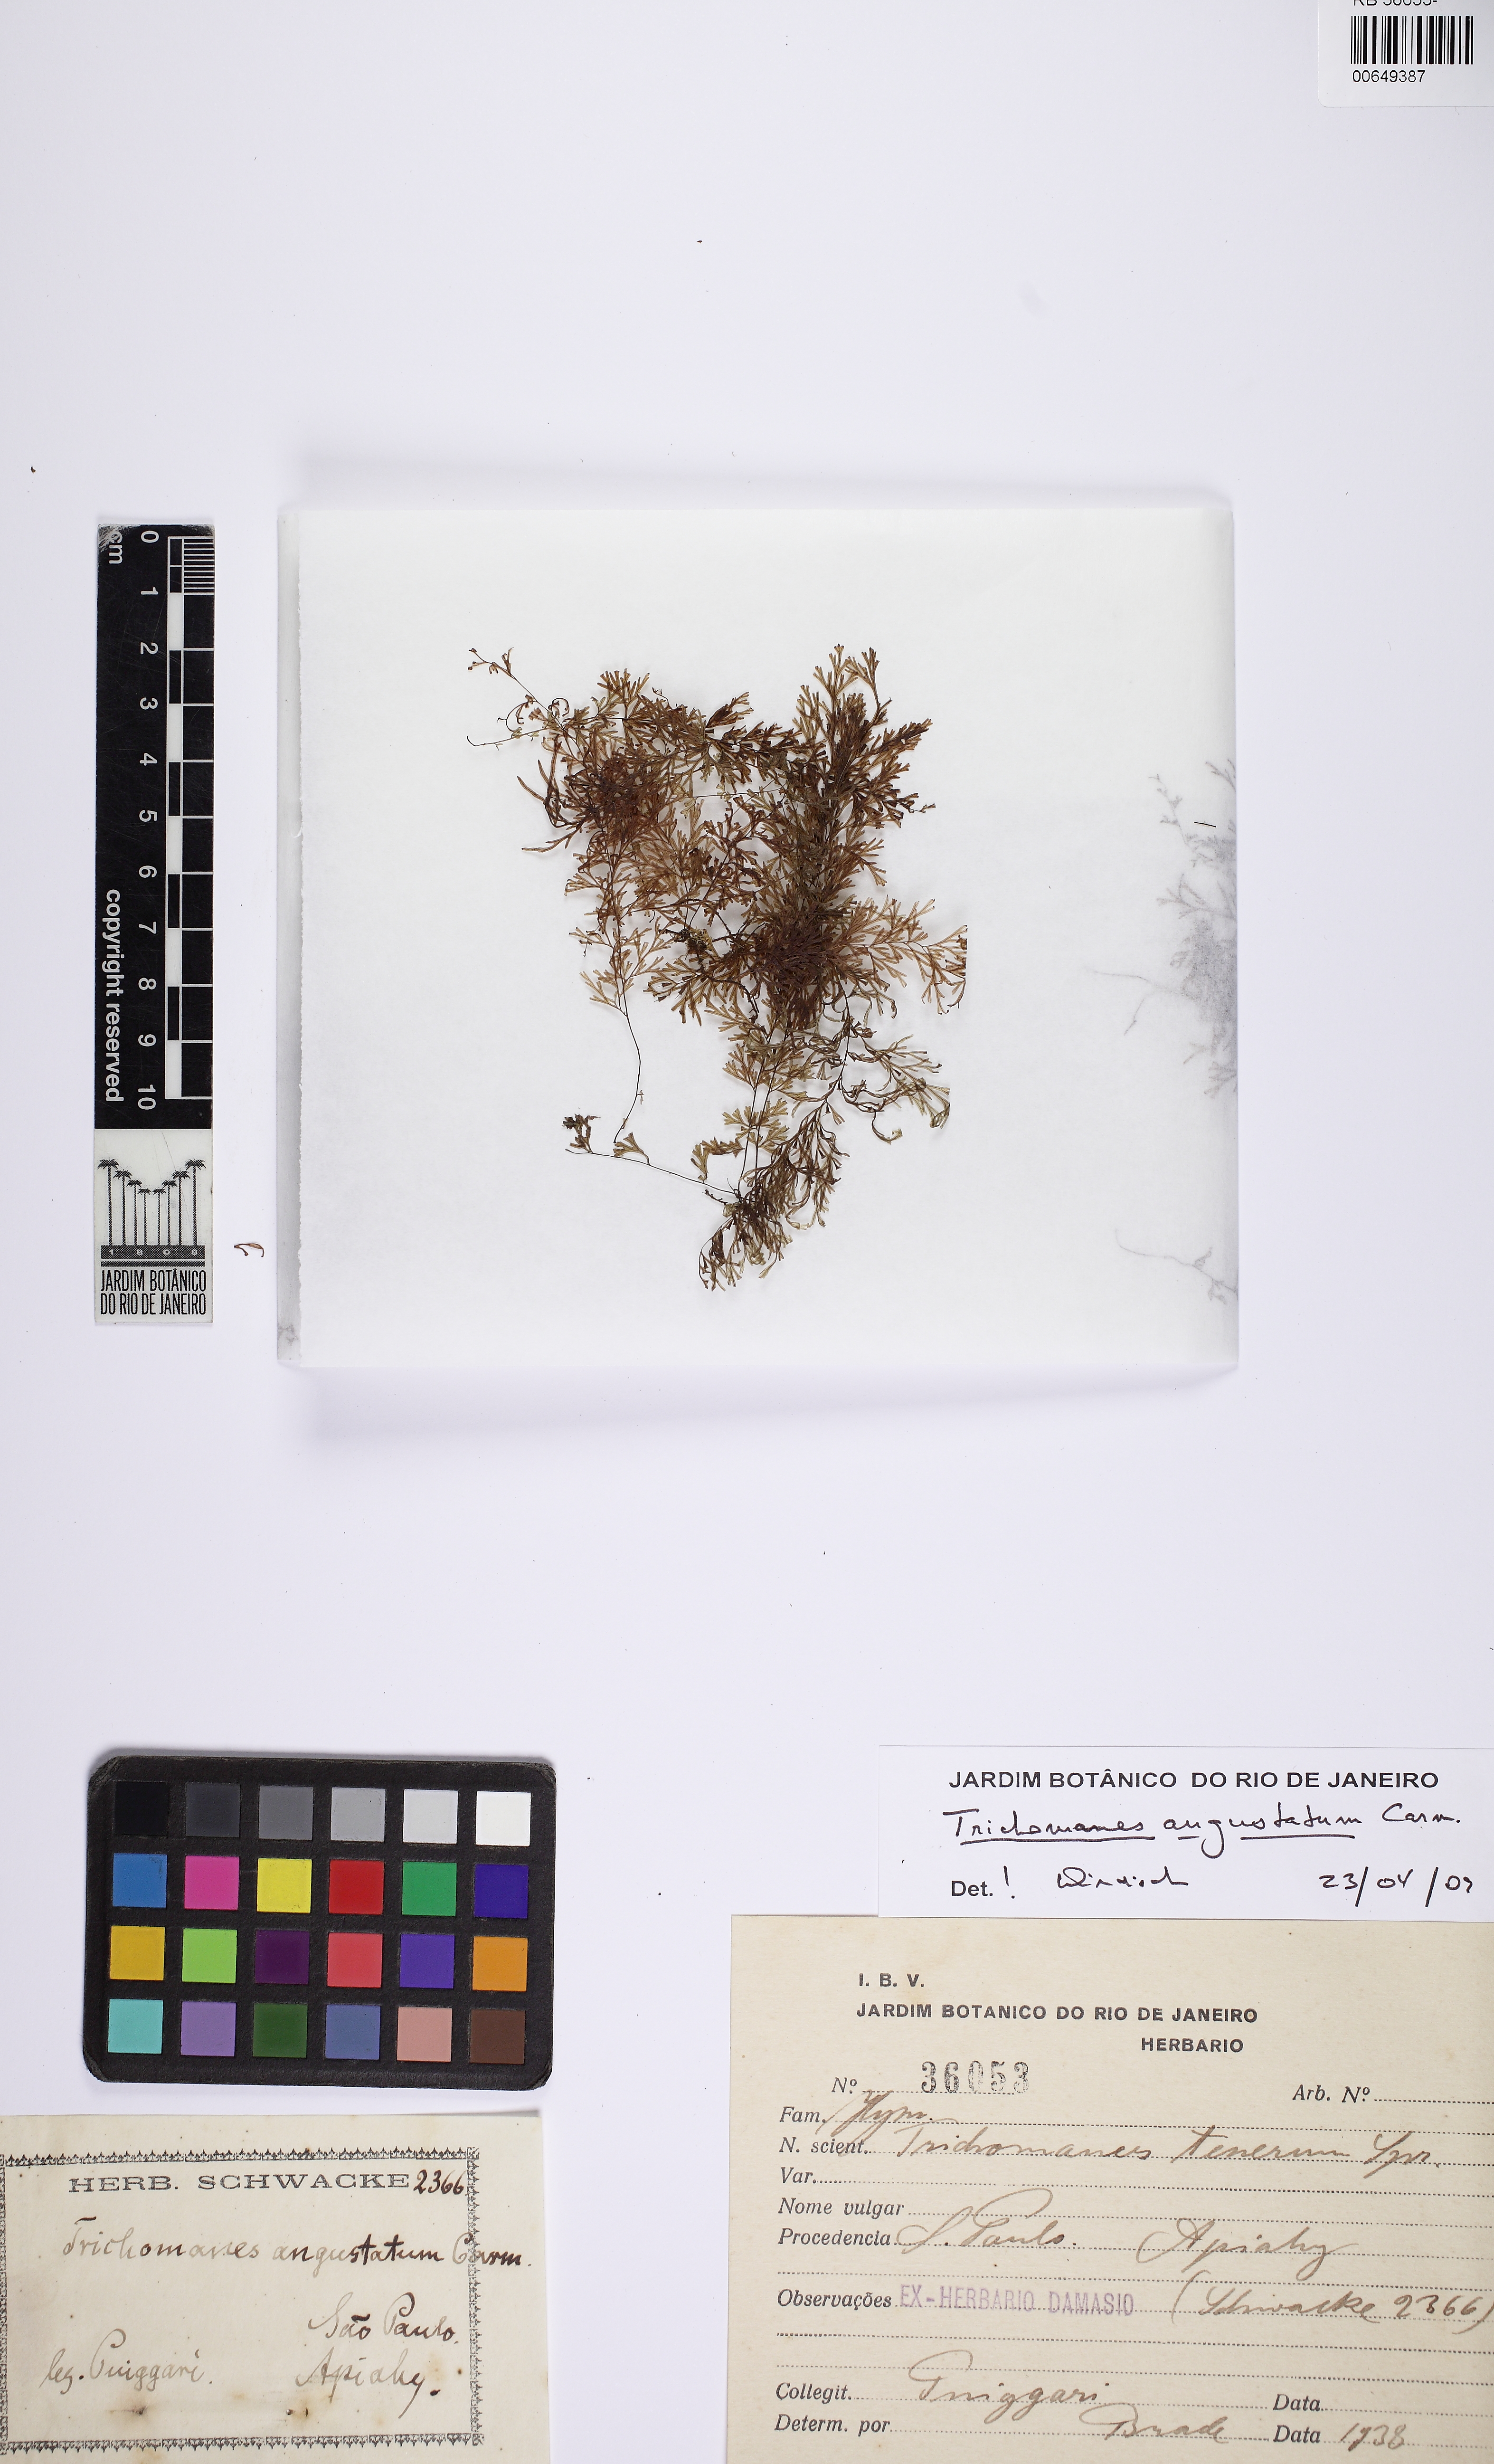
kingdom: Plantae
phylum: Tracheophyta
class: Polypodiopsida
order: Hymenophyllales
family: Hymenophyllaceae
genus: Polyphlebium
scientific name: Polyphlebium angustatum
